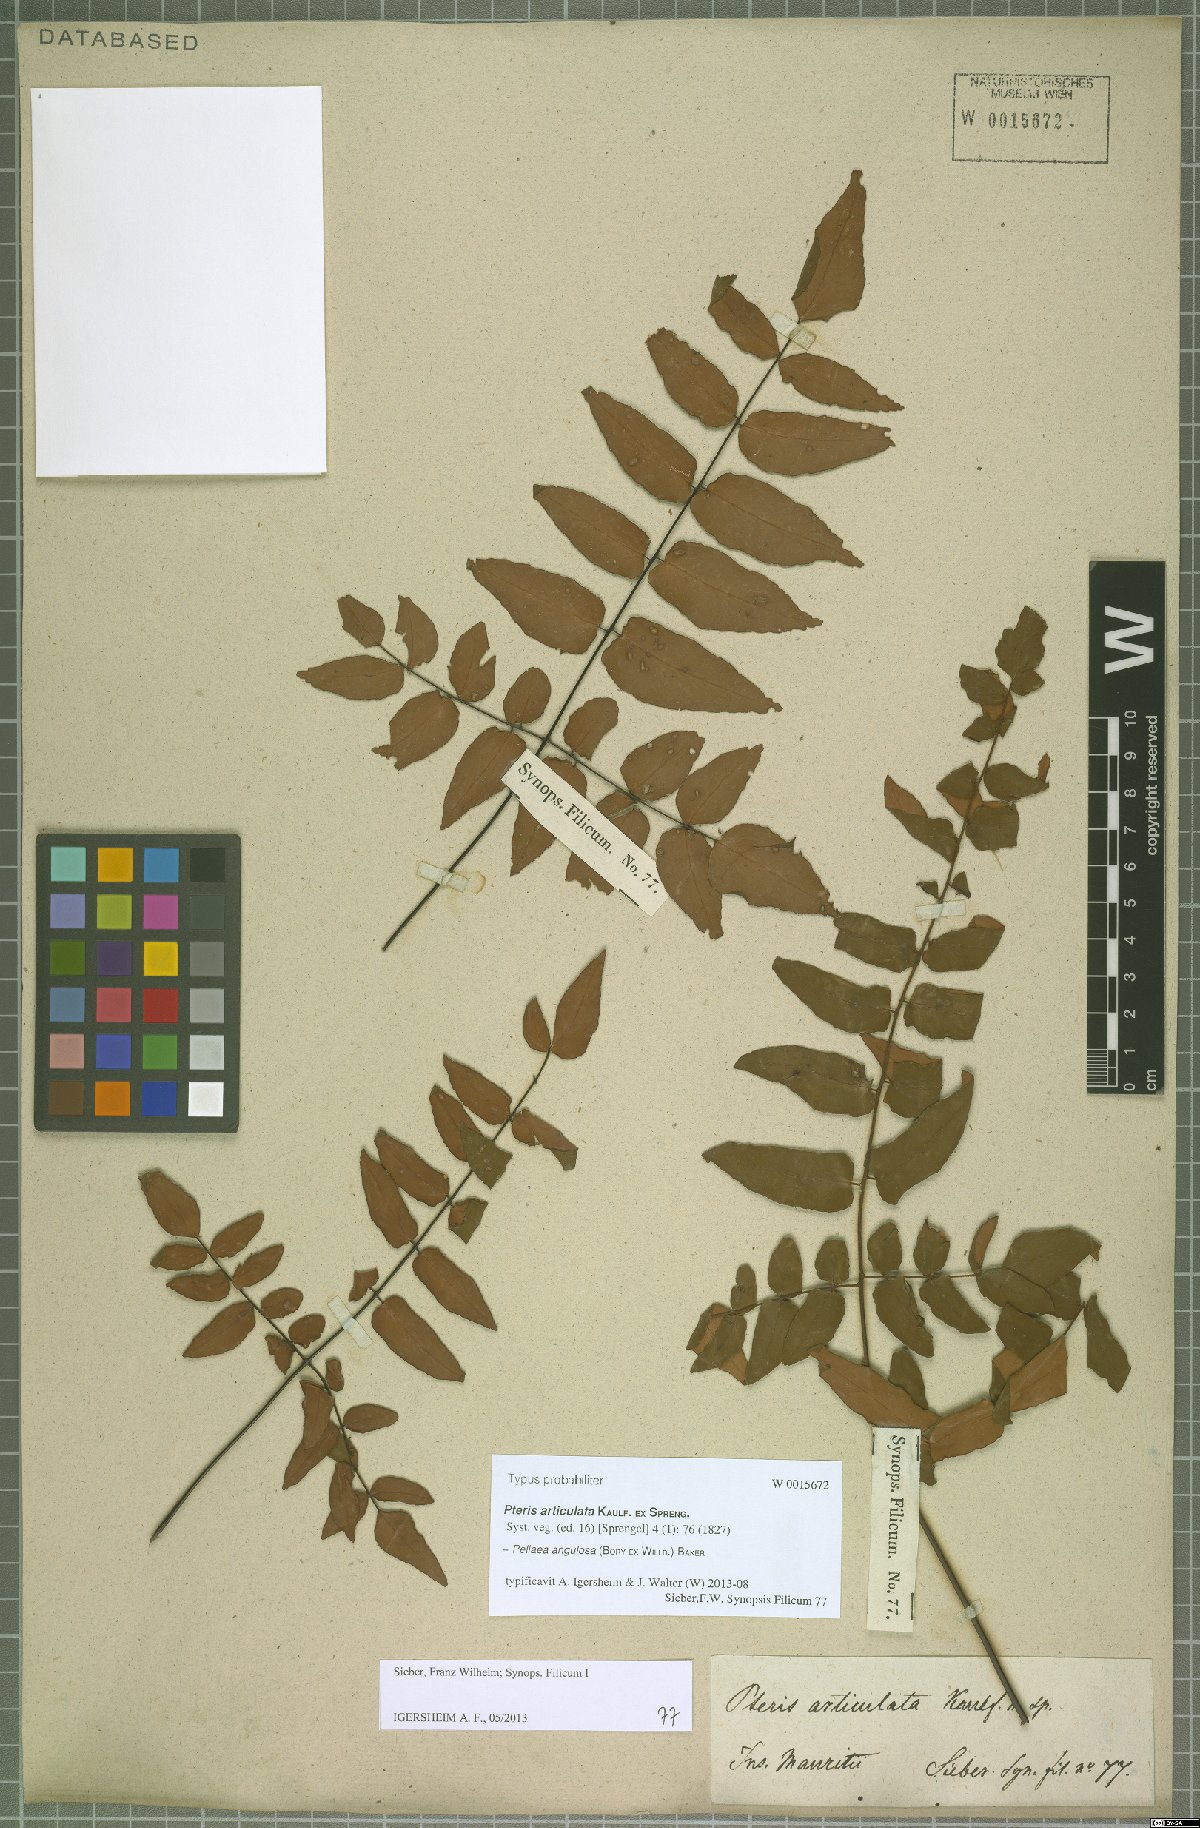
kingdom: Plantae
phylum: Tracheophyta
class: Polypodiopsida
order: Polypodiales
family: Pteridaceae
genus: Pellaea
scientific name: Pellaea angulosa
